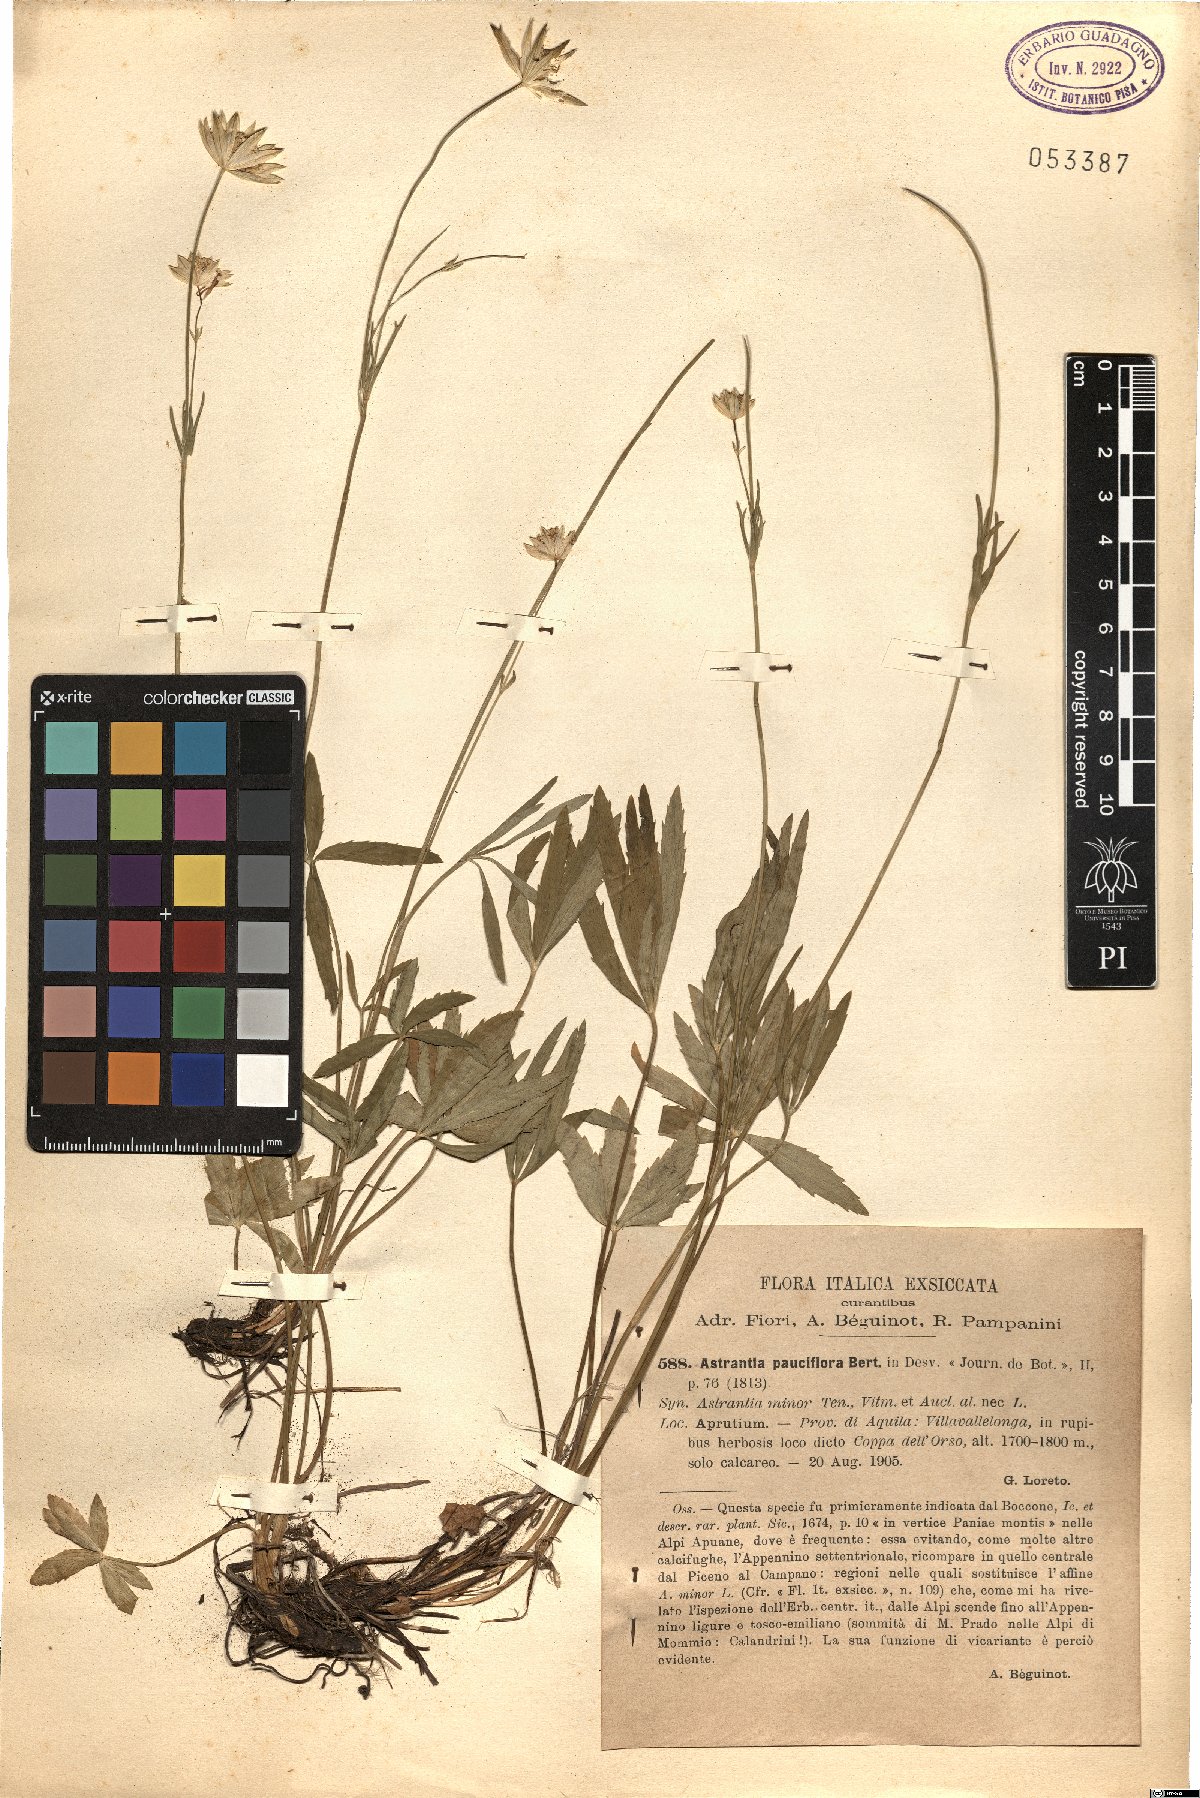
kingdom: Plantae
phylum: Tracheophyta
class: Magnoliopsida
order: Apiales
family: Apiaceae
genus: Astrantia
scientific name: Astrantia pauciflora
